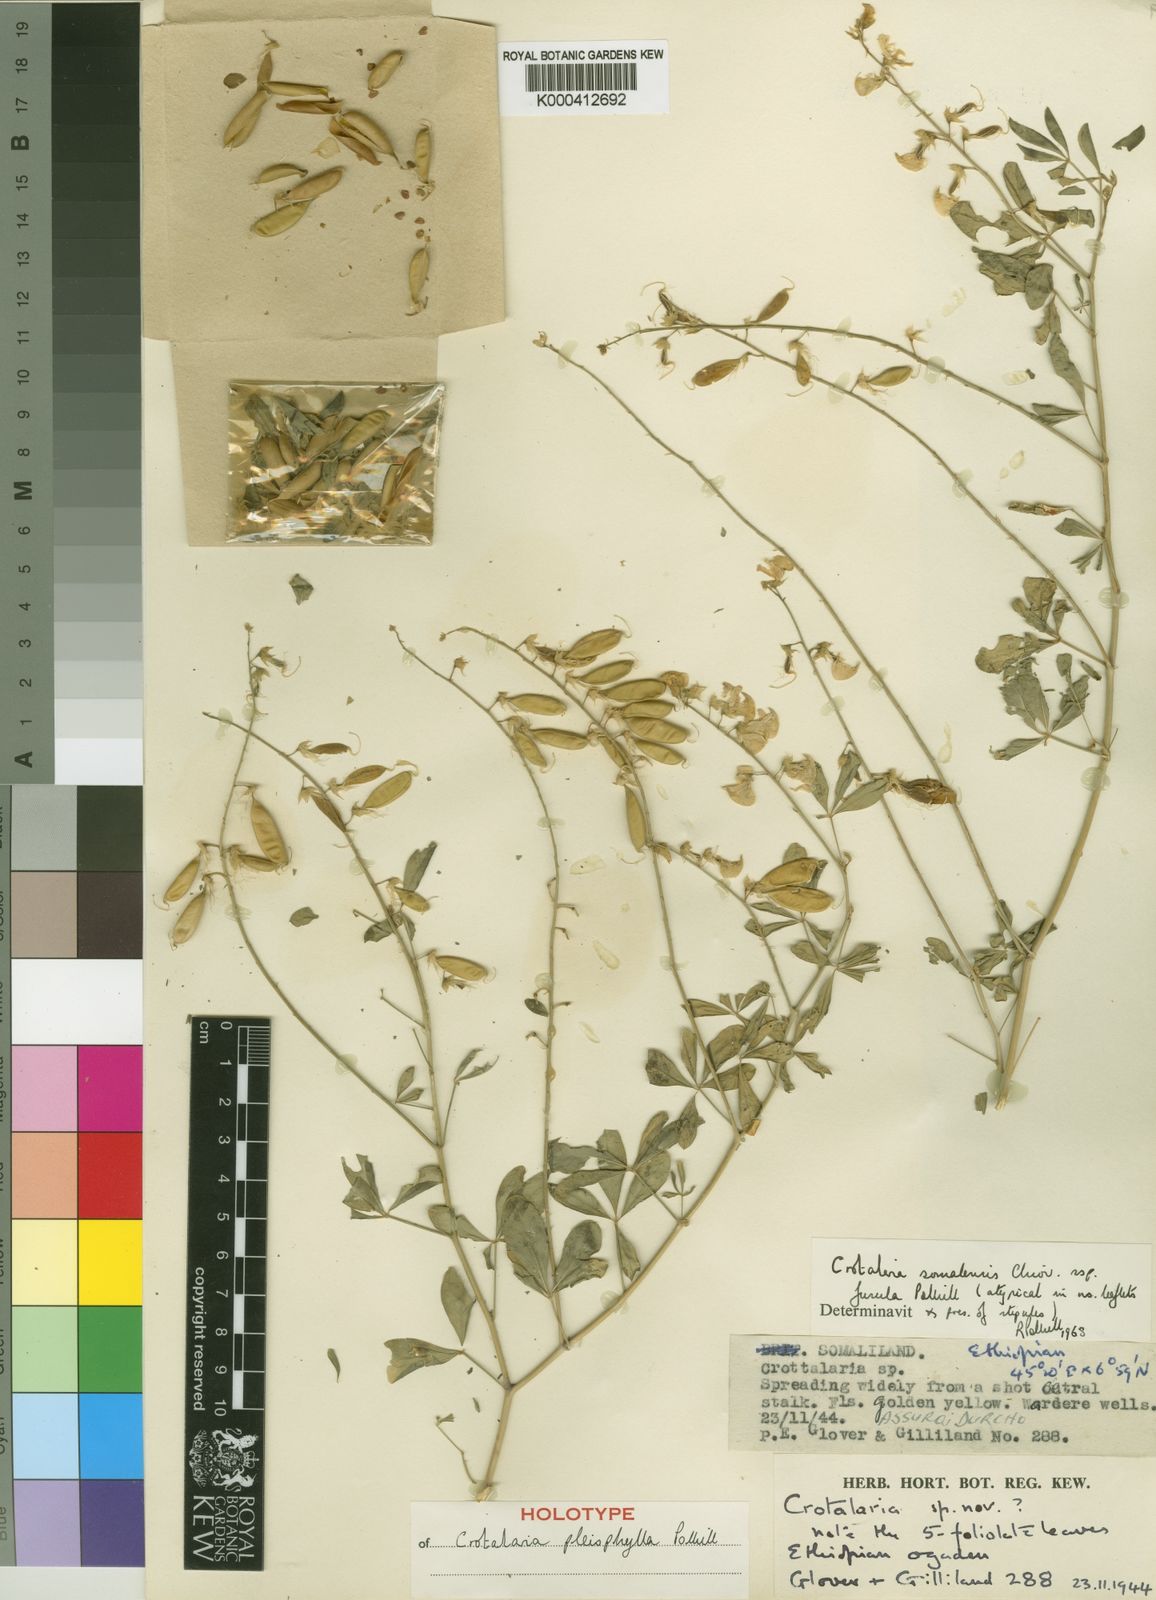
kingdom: Plantae
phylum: Tracheophyta
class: Magnoliopsida
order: Fabales
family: Fabaceae
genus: Crotalaria
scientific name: Crotalaria pleiophylla
